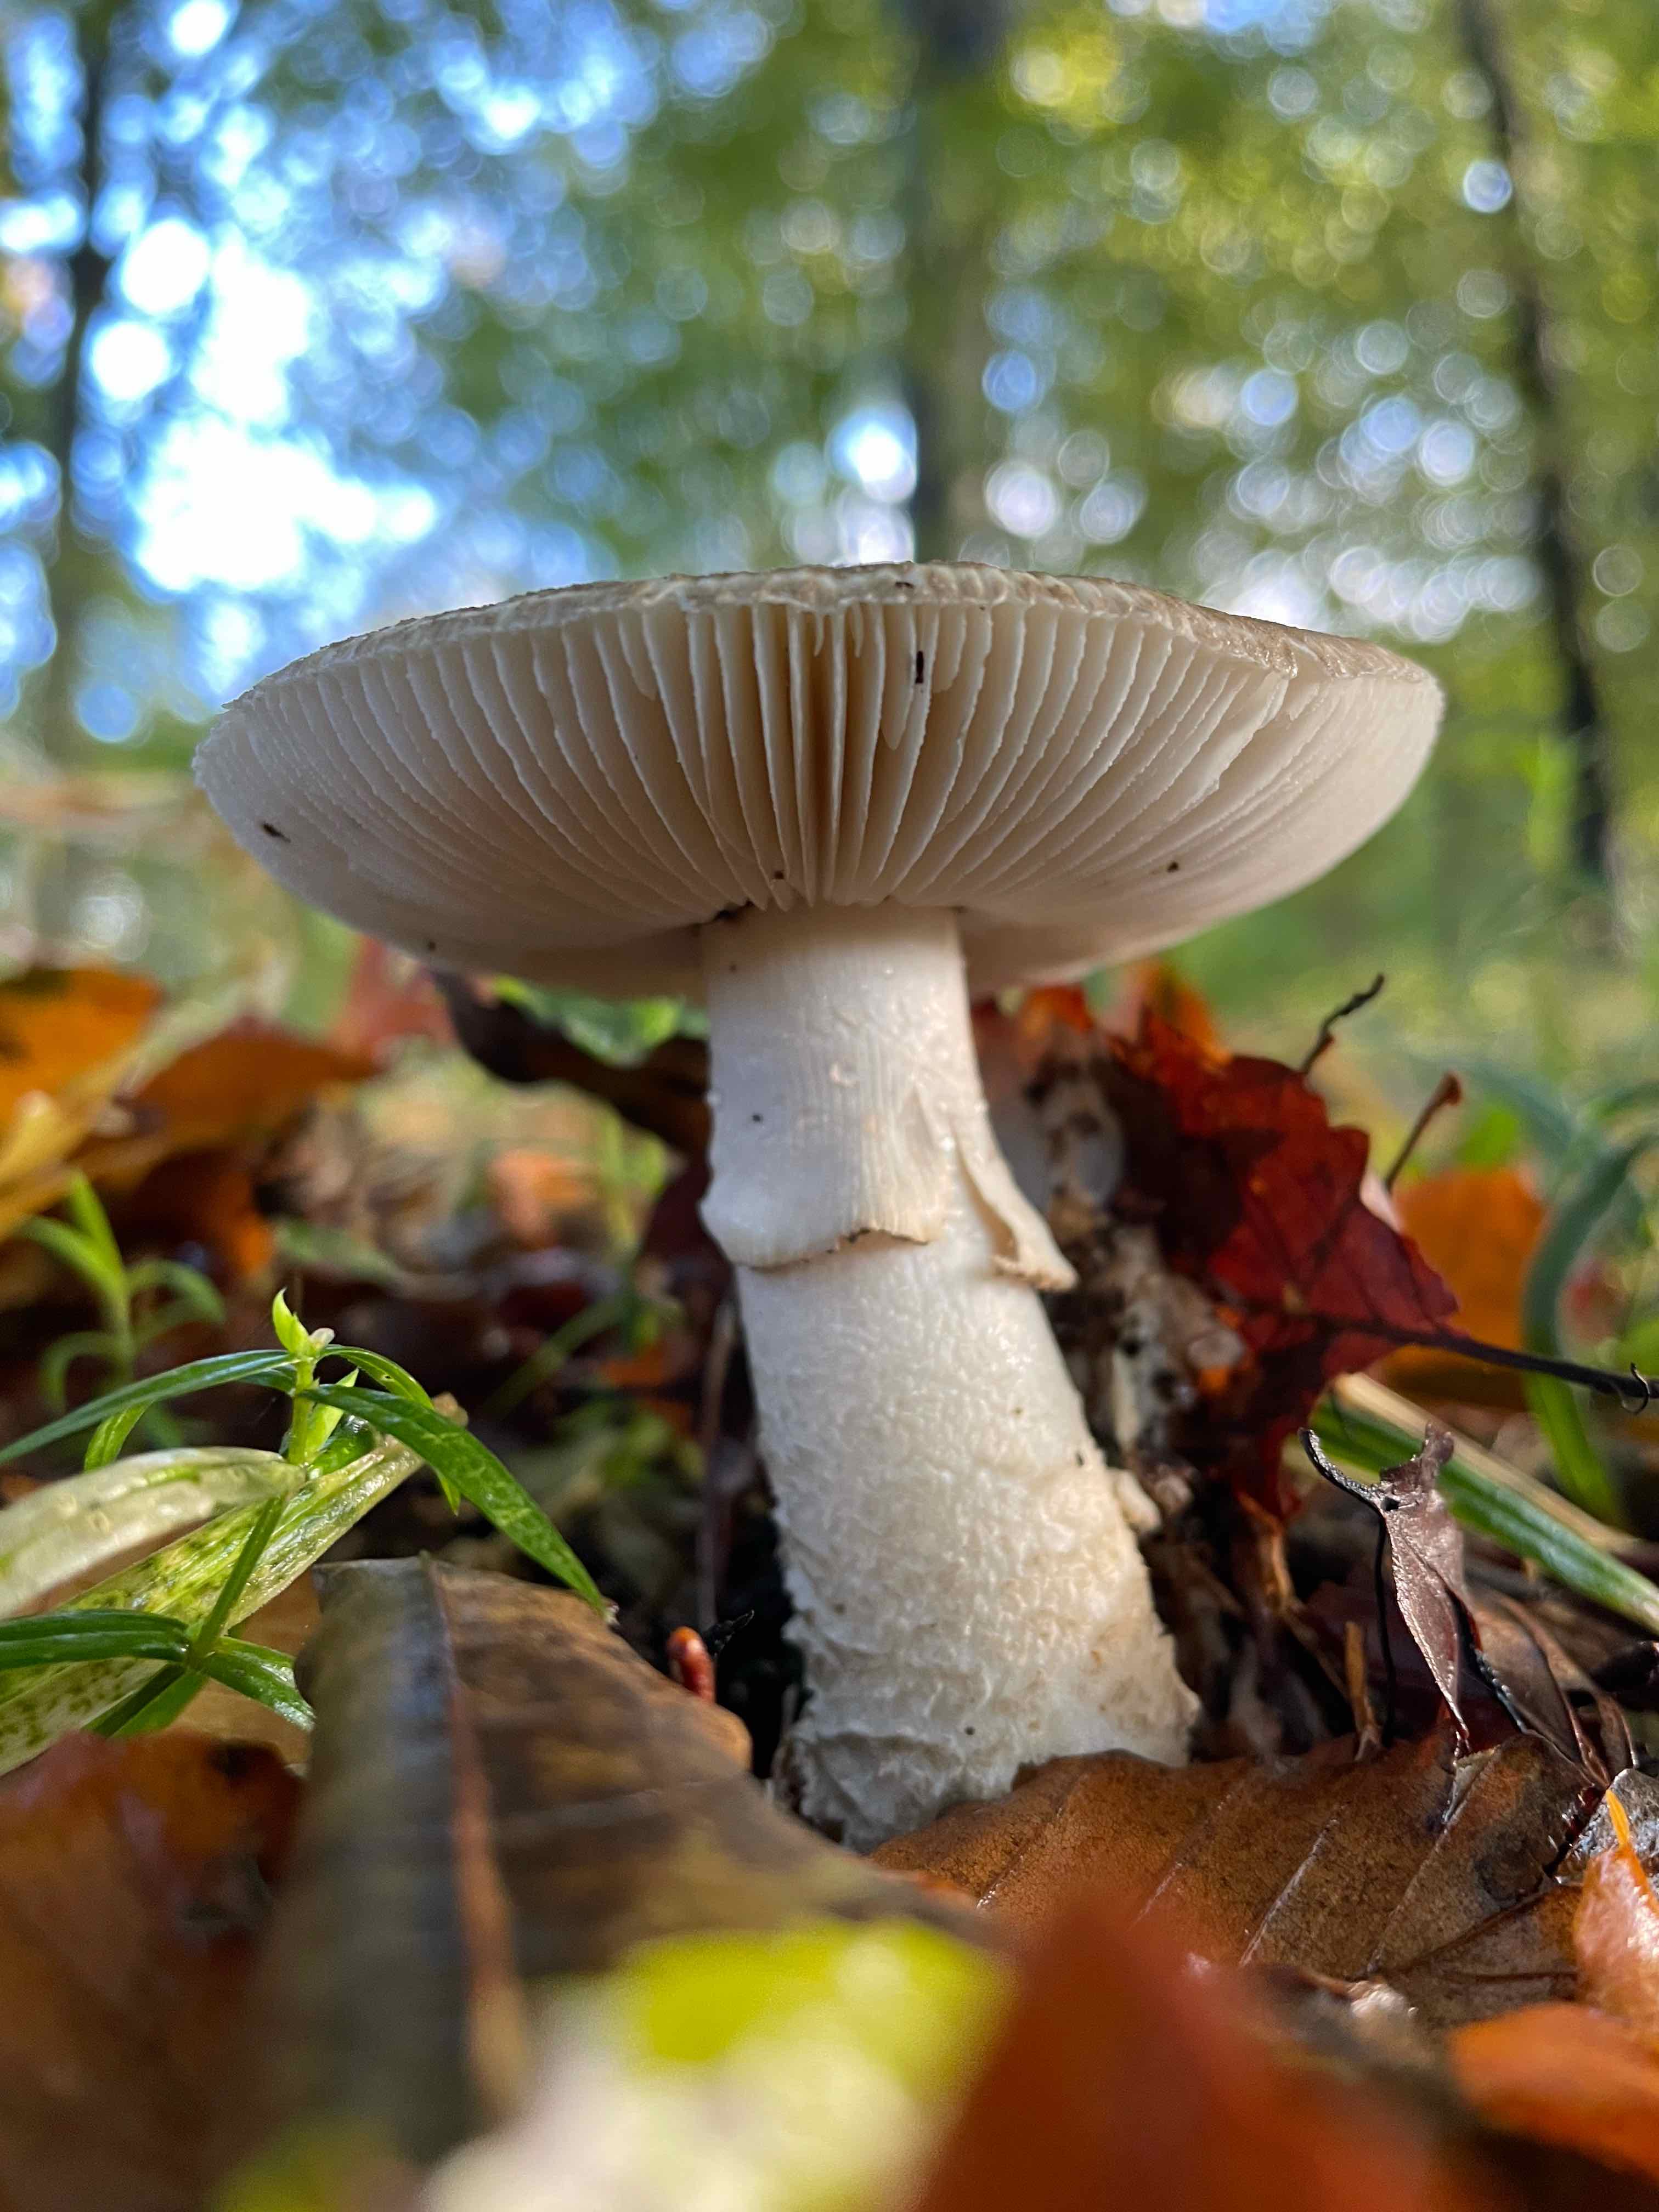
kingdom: Fungi
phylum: Basidiomycota
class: Agaricomycetes
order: Agaricales
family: Amanitaceae
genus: Amanita
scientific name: Amanita
